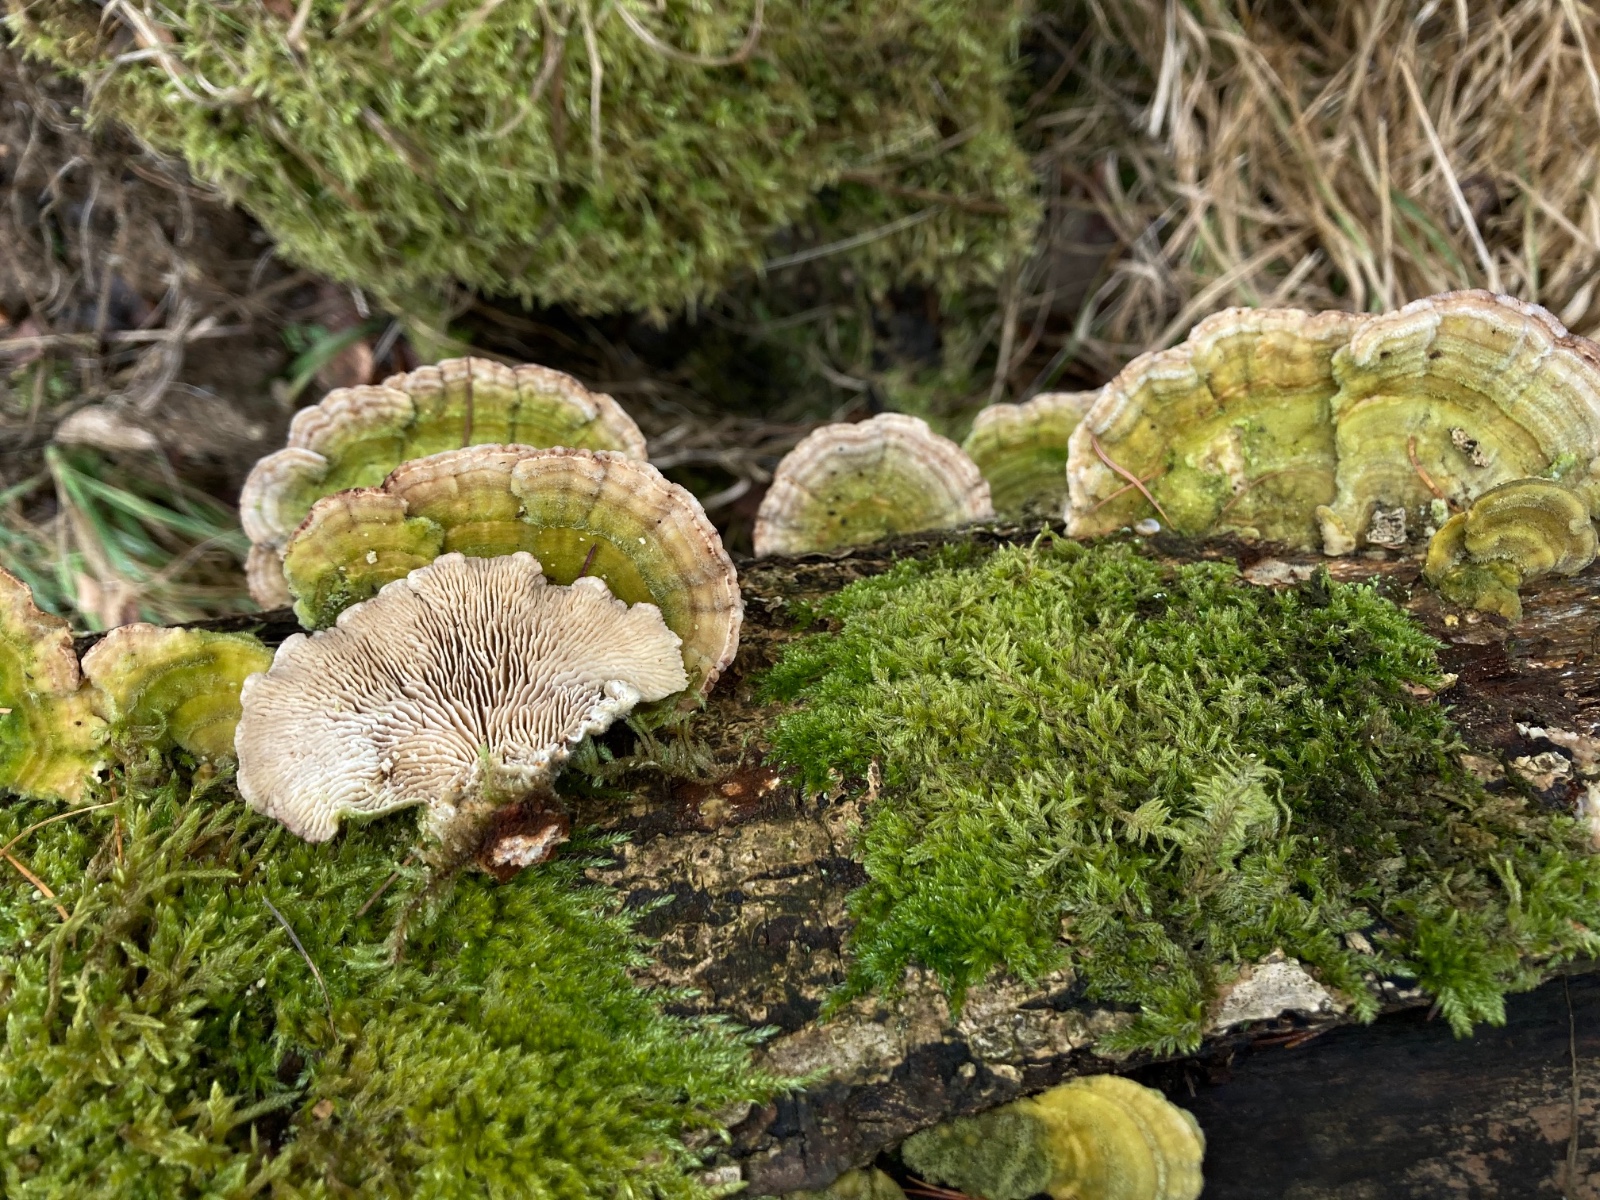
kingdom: Fungi
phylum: Basidiomycota
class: Agaricomycetes
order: Polyporales
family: Polyporaceae
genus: Lenzites
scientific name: Lenzites betulinus
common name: birke-læderporesvamp
